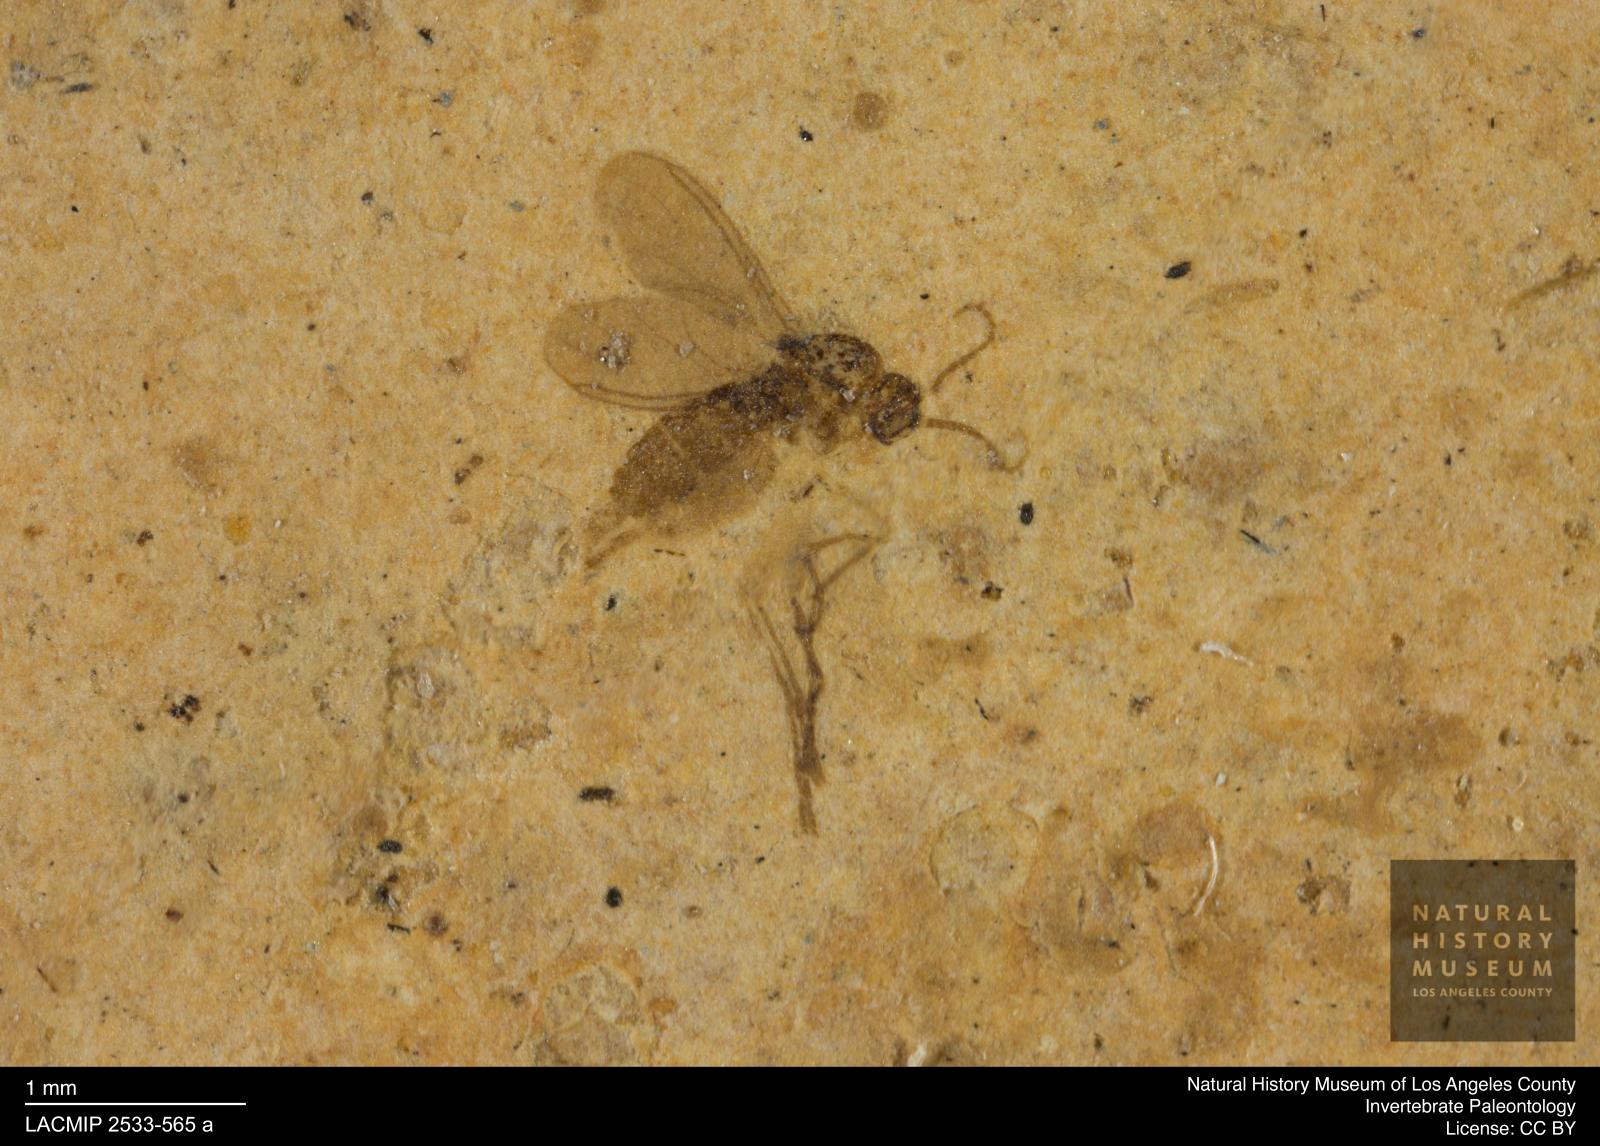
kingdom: Animalia
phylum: Arthropoda
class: Insecta
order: Diptera
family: Sciaridae
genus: Corynoptera
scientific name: Corynoptera klebsii
